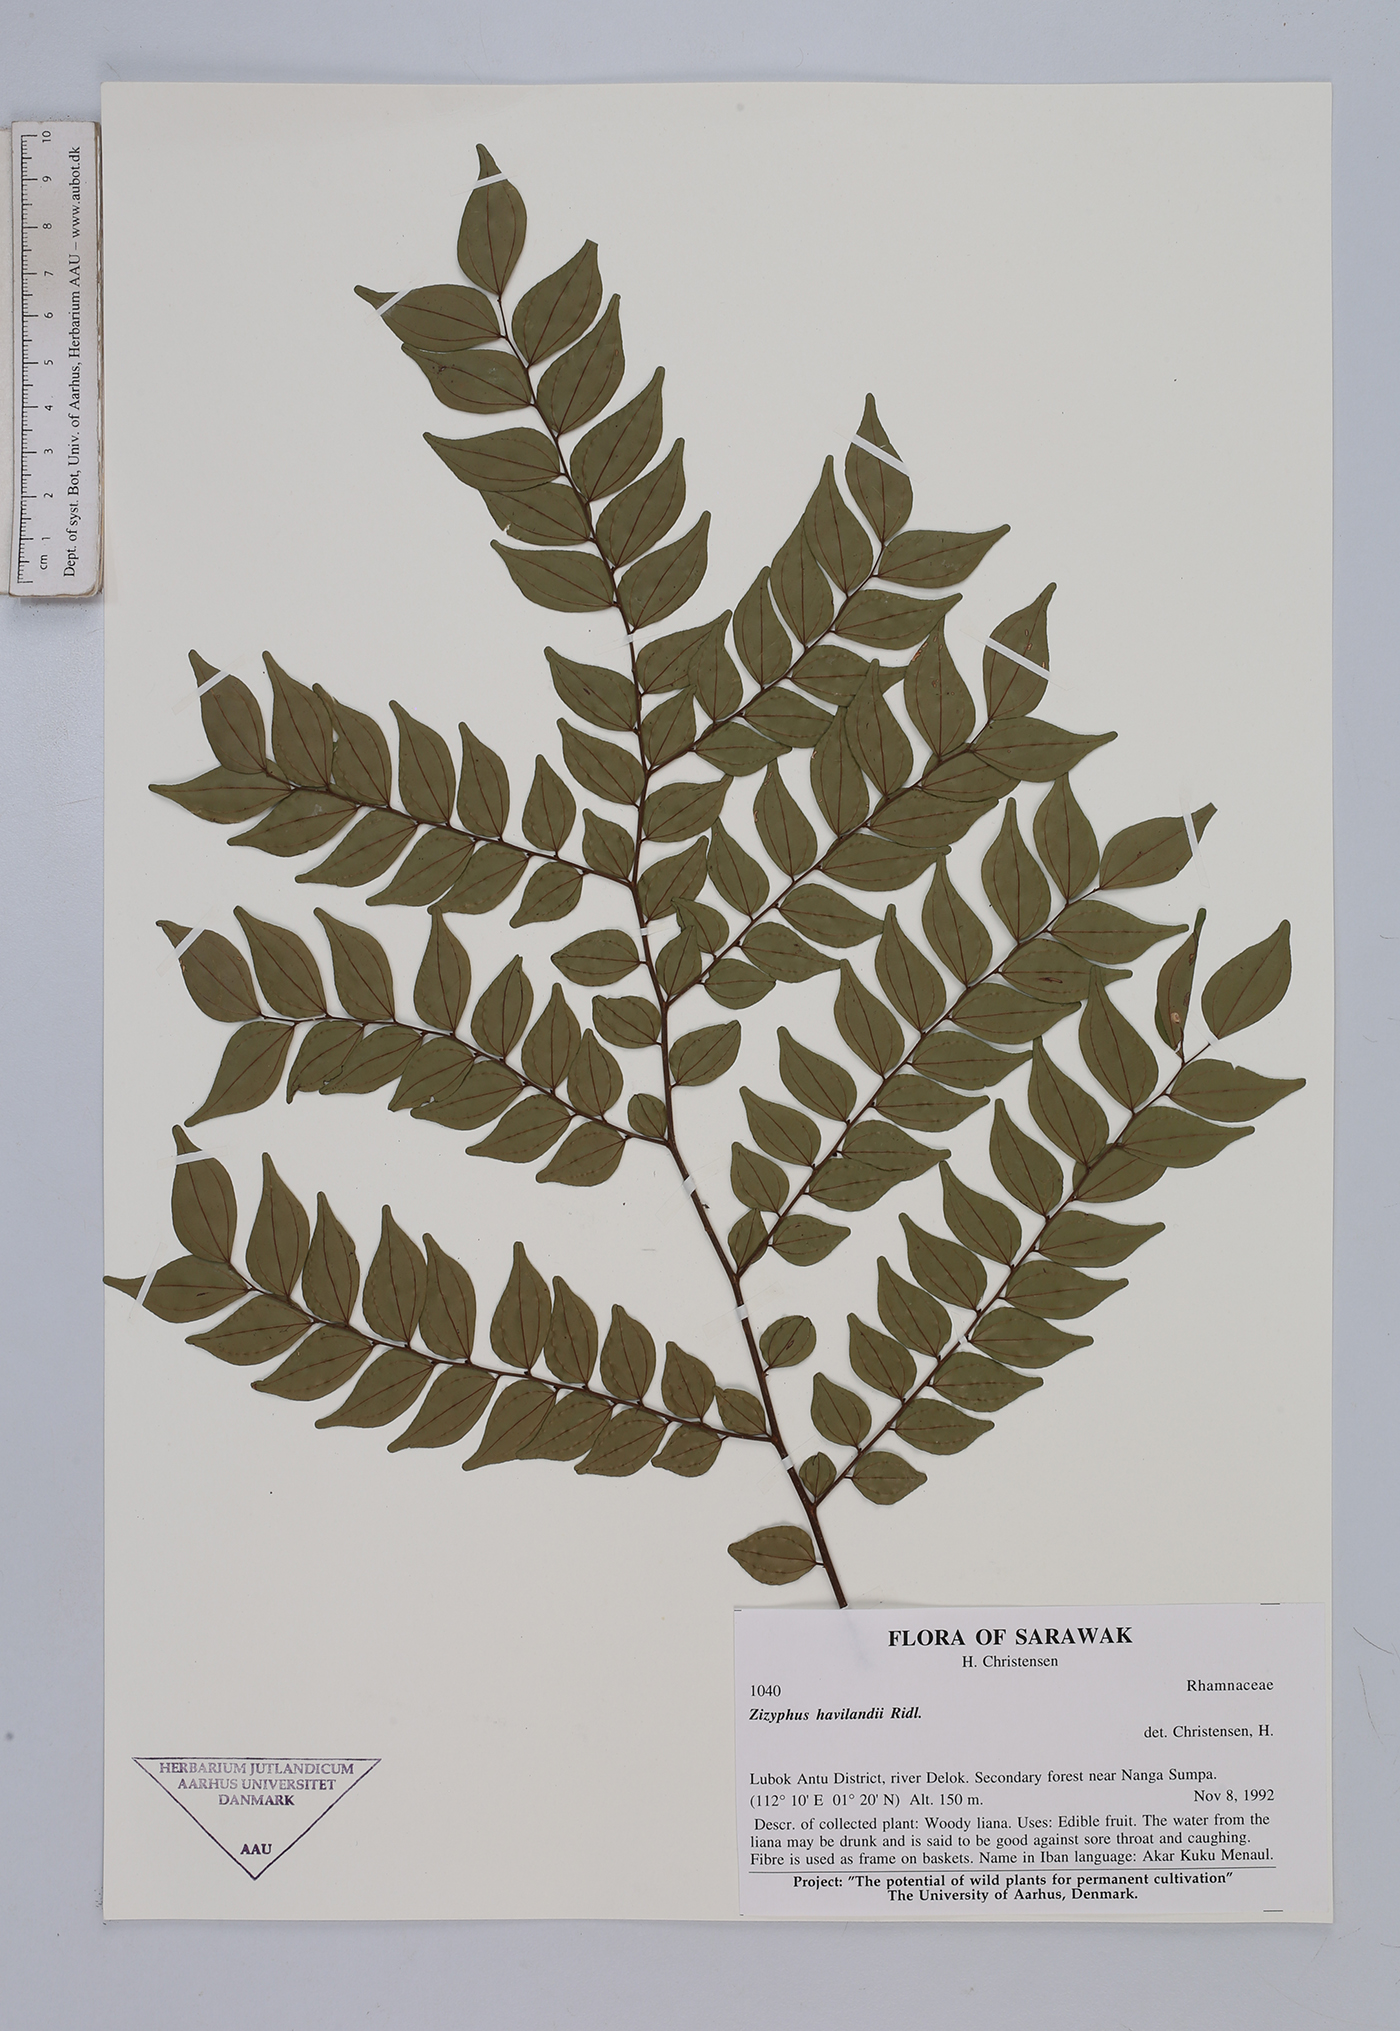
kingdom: Plantae
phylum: Tracheophyta
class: Magnoliopsida
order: Rosales
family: Rhamnaceae
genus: Ziziphus
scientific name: Ziziphus havilandii
